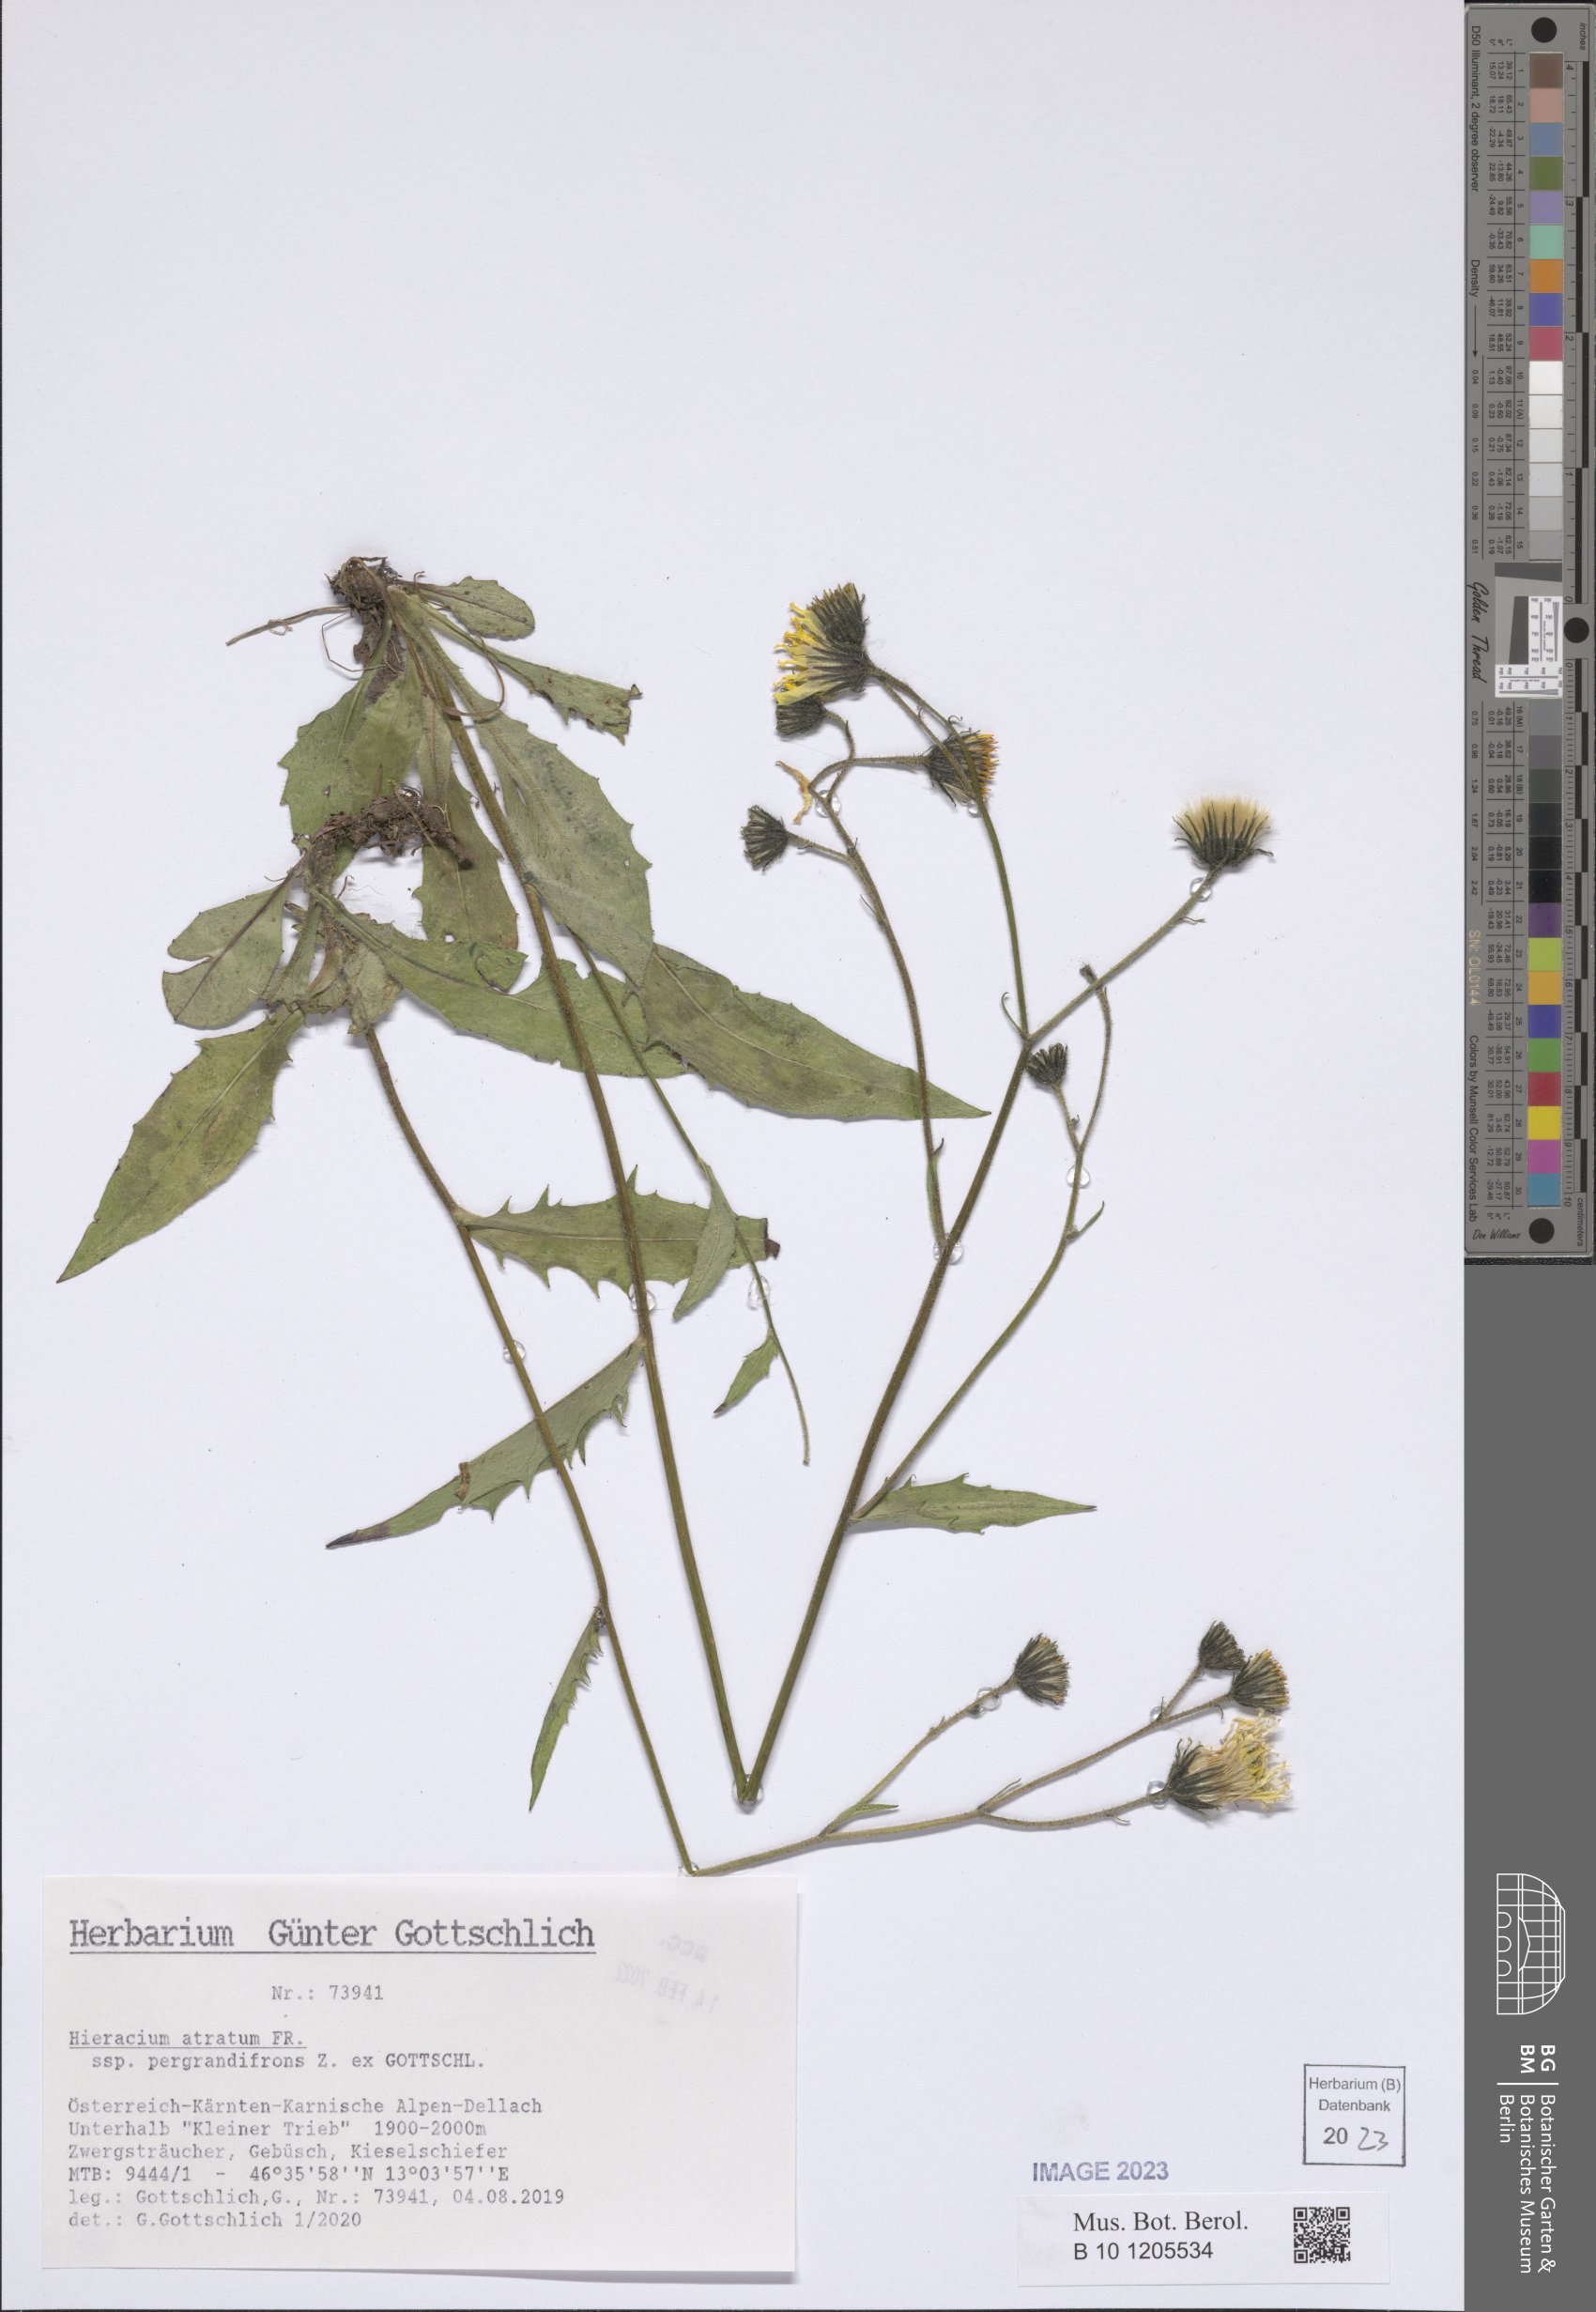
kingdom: Plantae
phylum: Tracheophyta
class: Magnoliopsida
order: Asterales
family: Asteraceae
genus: Hieracium
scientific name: Hieracium atratum
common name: Polar hawkweed
